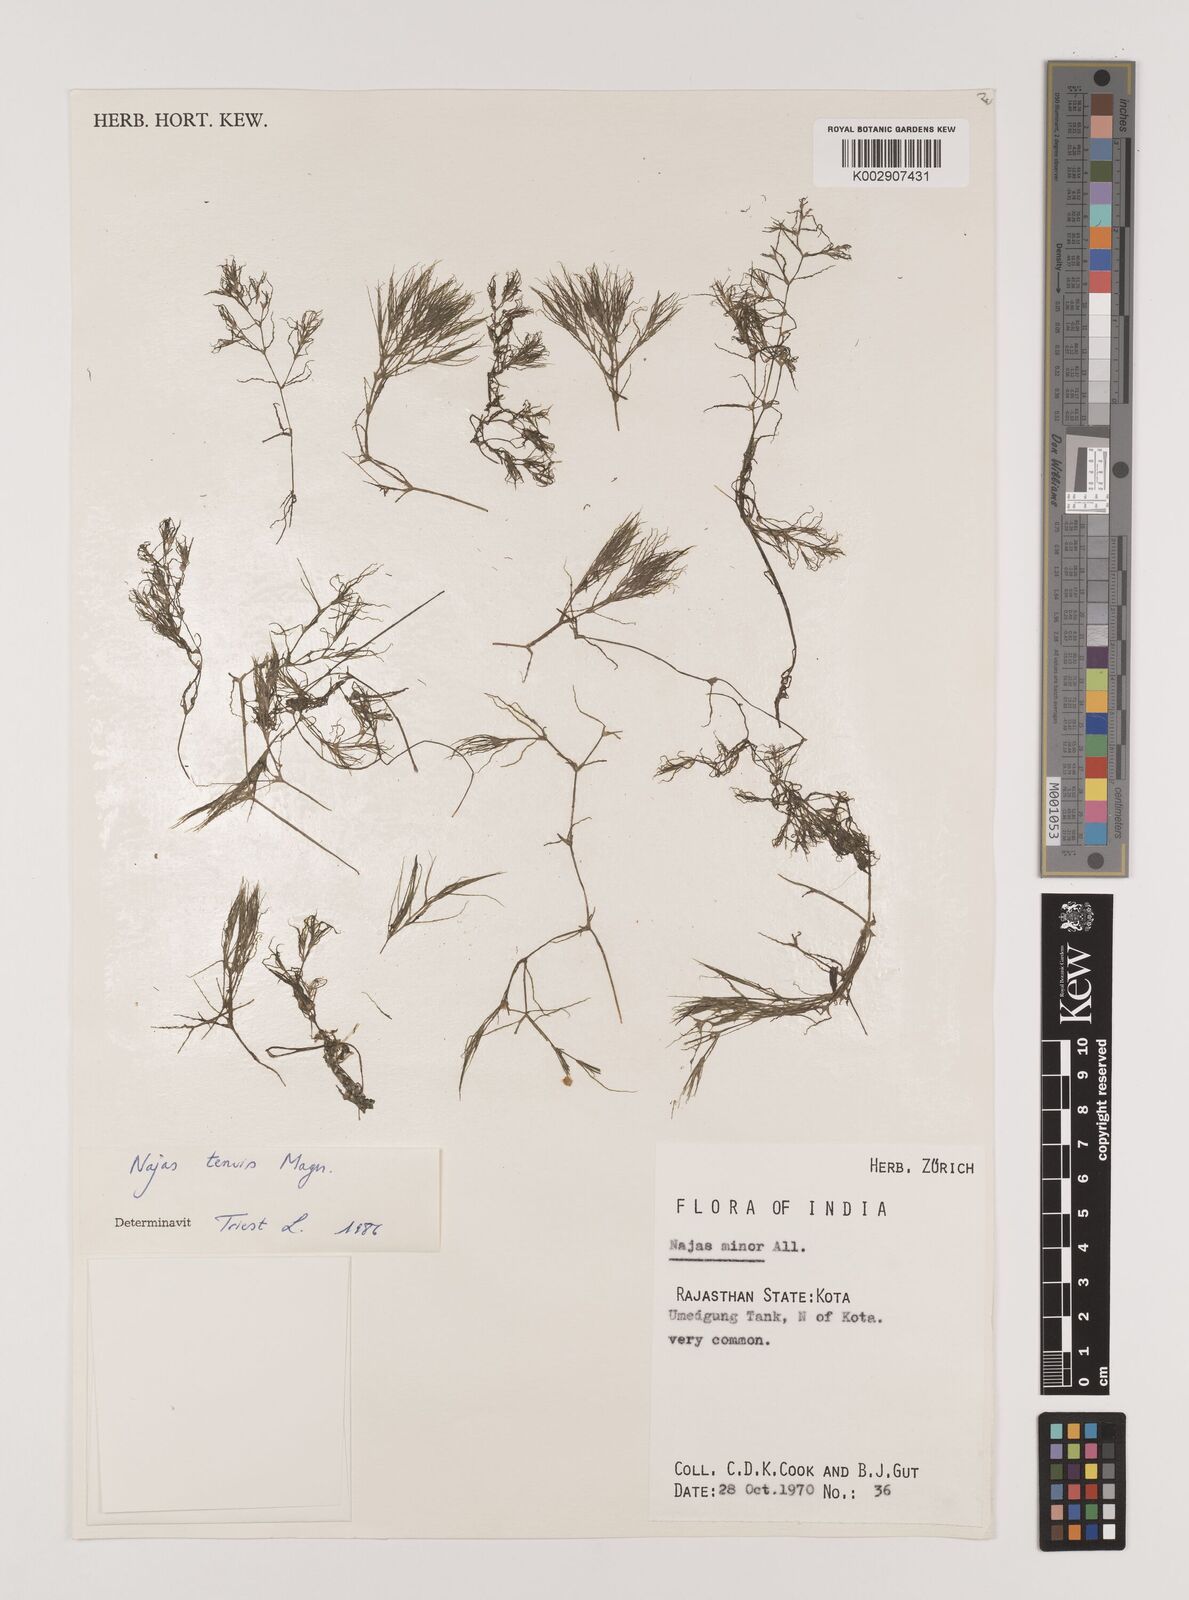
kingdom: Plantae
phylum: Tracheophyta
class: Liliopsida
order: Alismatales
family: Hydrocharitaceae
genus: Najas
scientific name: Najas indica
